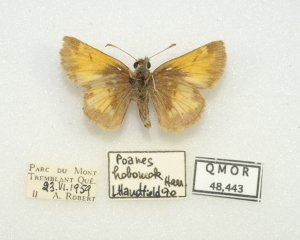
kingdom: Animalia
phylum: Arthropoda
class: Insecta
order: Lepidoptera
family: Hesperiidae
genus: Lon
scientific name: Lon hobomok
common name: Hobomok Skipper
